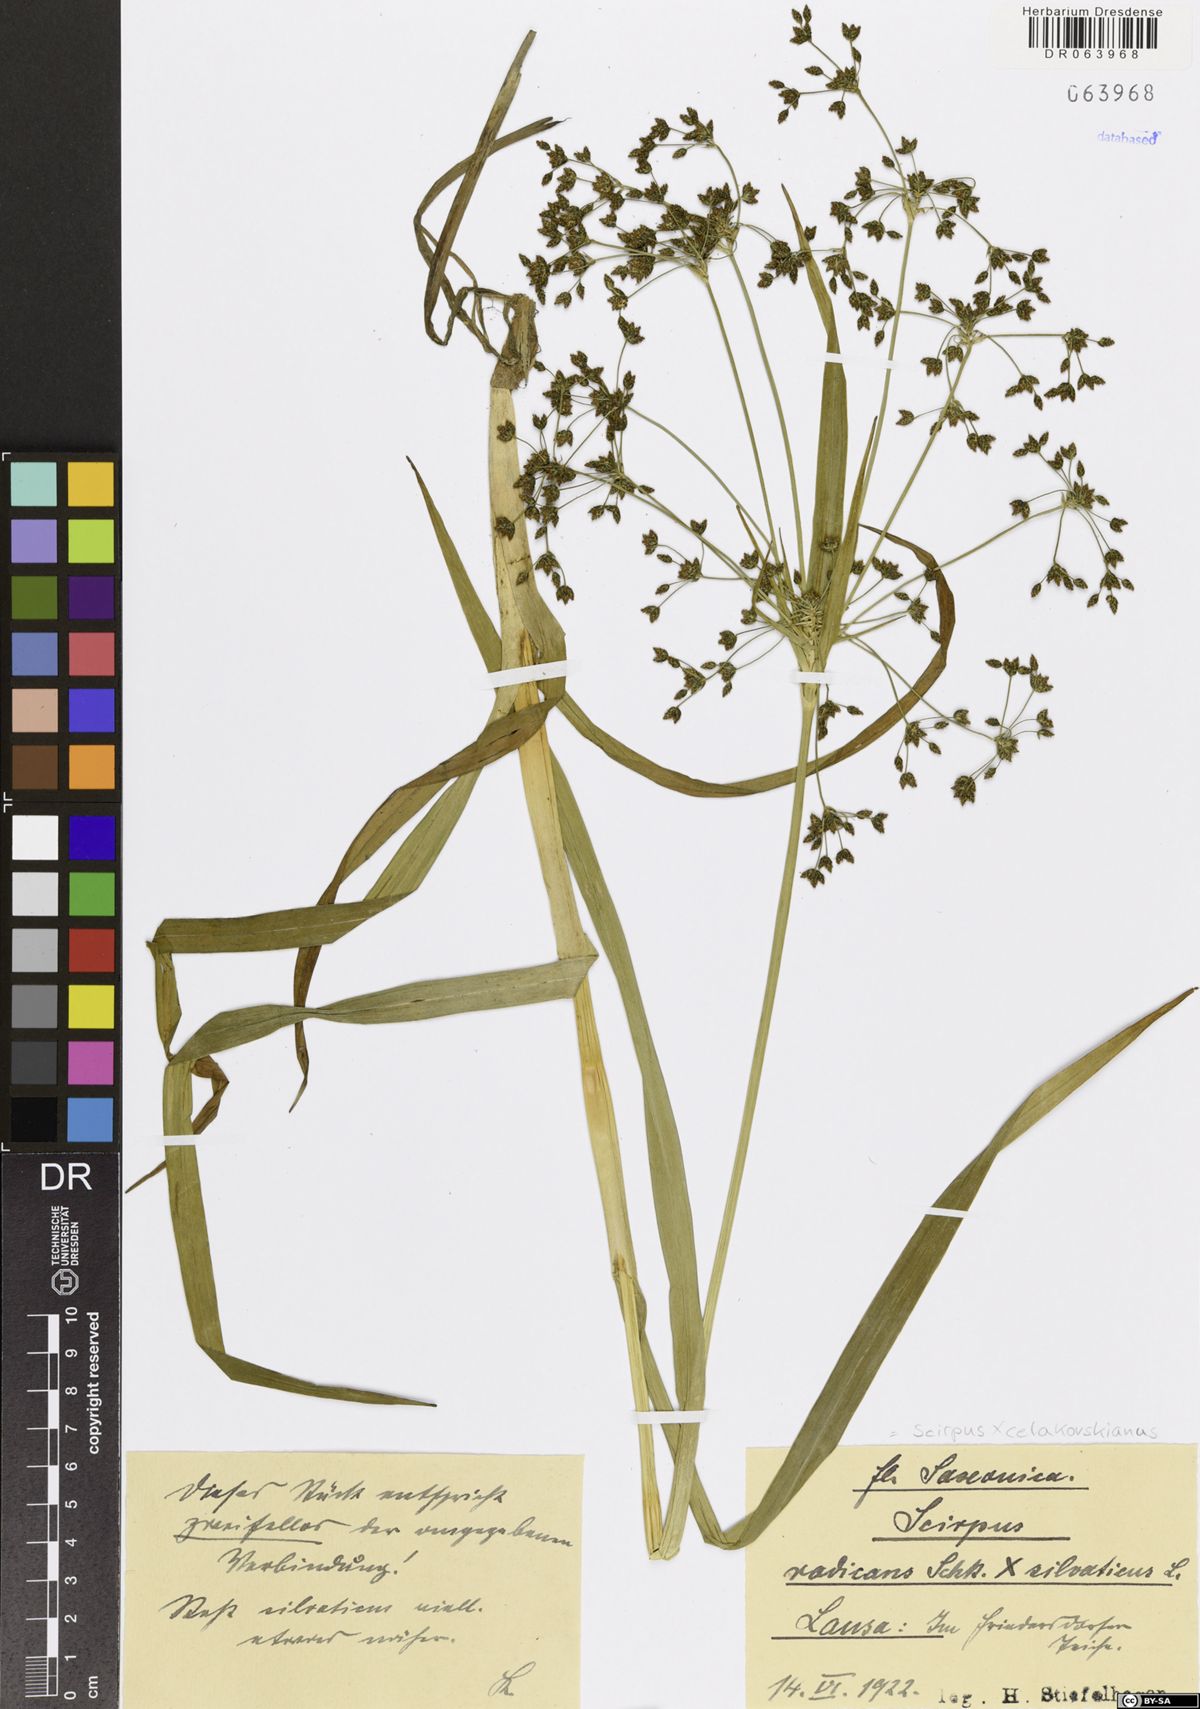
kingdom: Plantae
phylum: Tracheophyta
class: Liliopsida
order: Poales
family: Cyperaceae
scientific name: Cyperaceae
